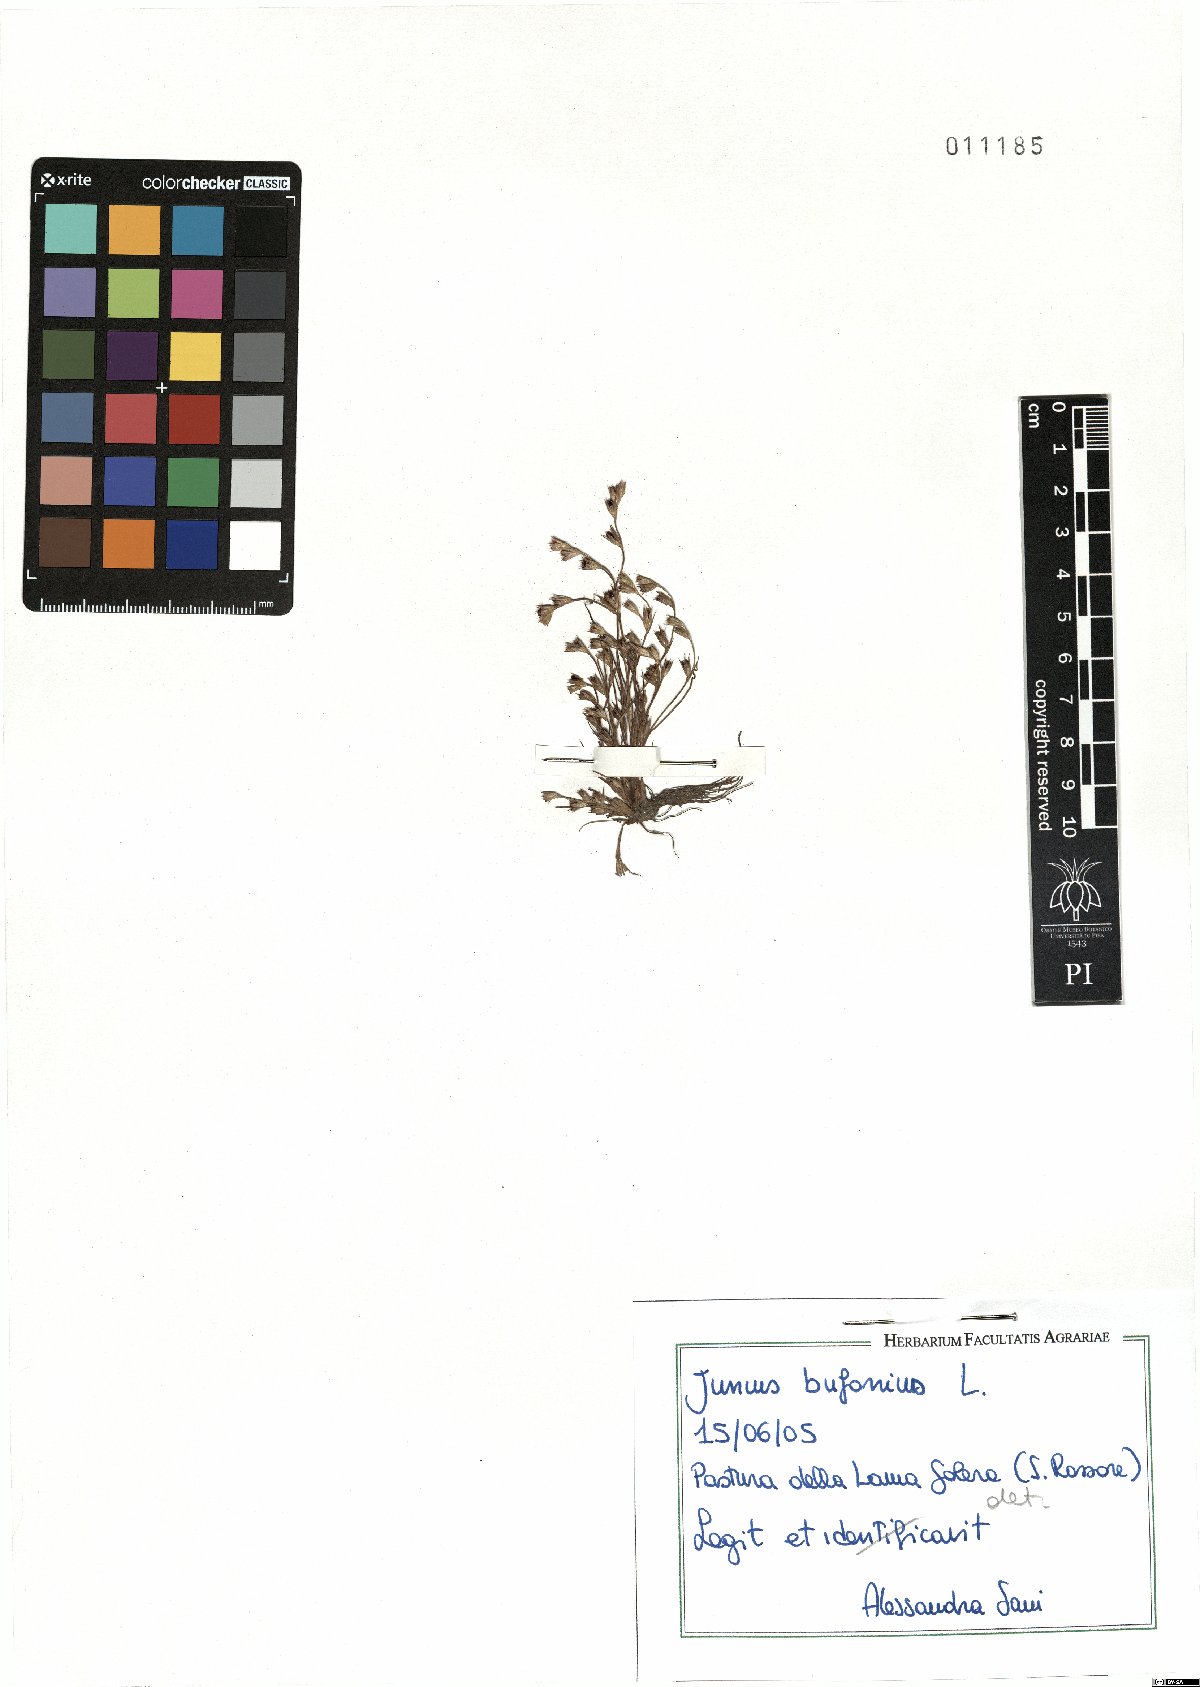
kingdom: Plantae
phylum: Tracheophyta
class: Liliopsida
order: Poales
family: Juncaceae
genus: Juncus
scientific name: Juncus bufonius
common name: Toad rush
